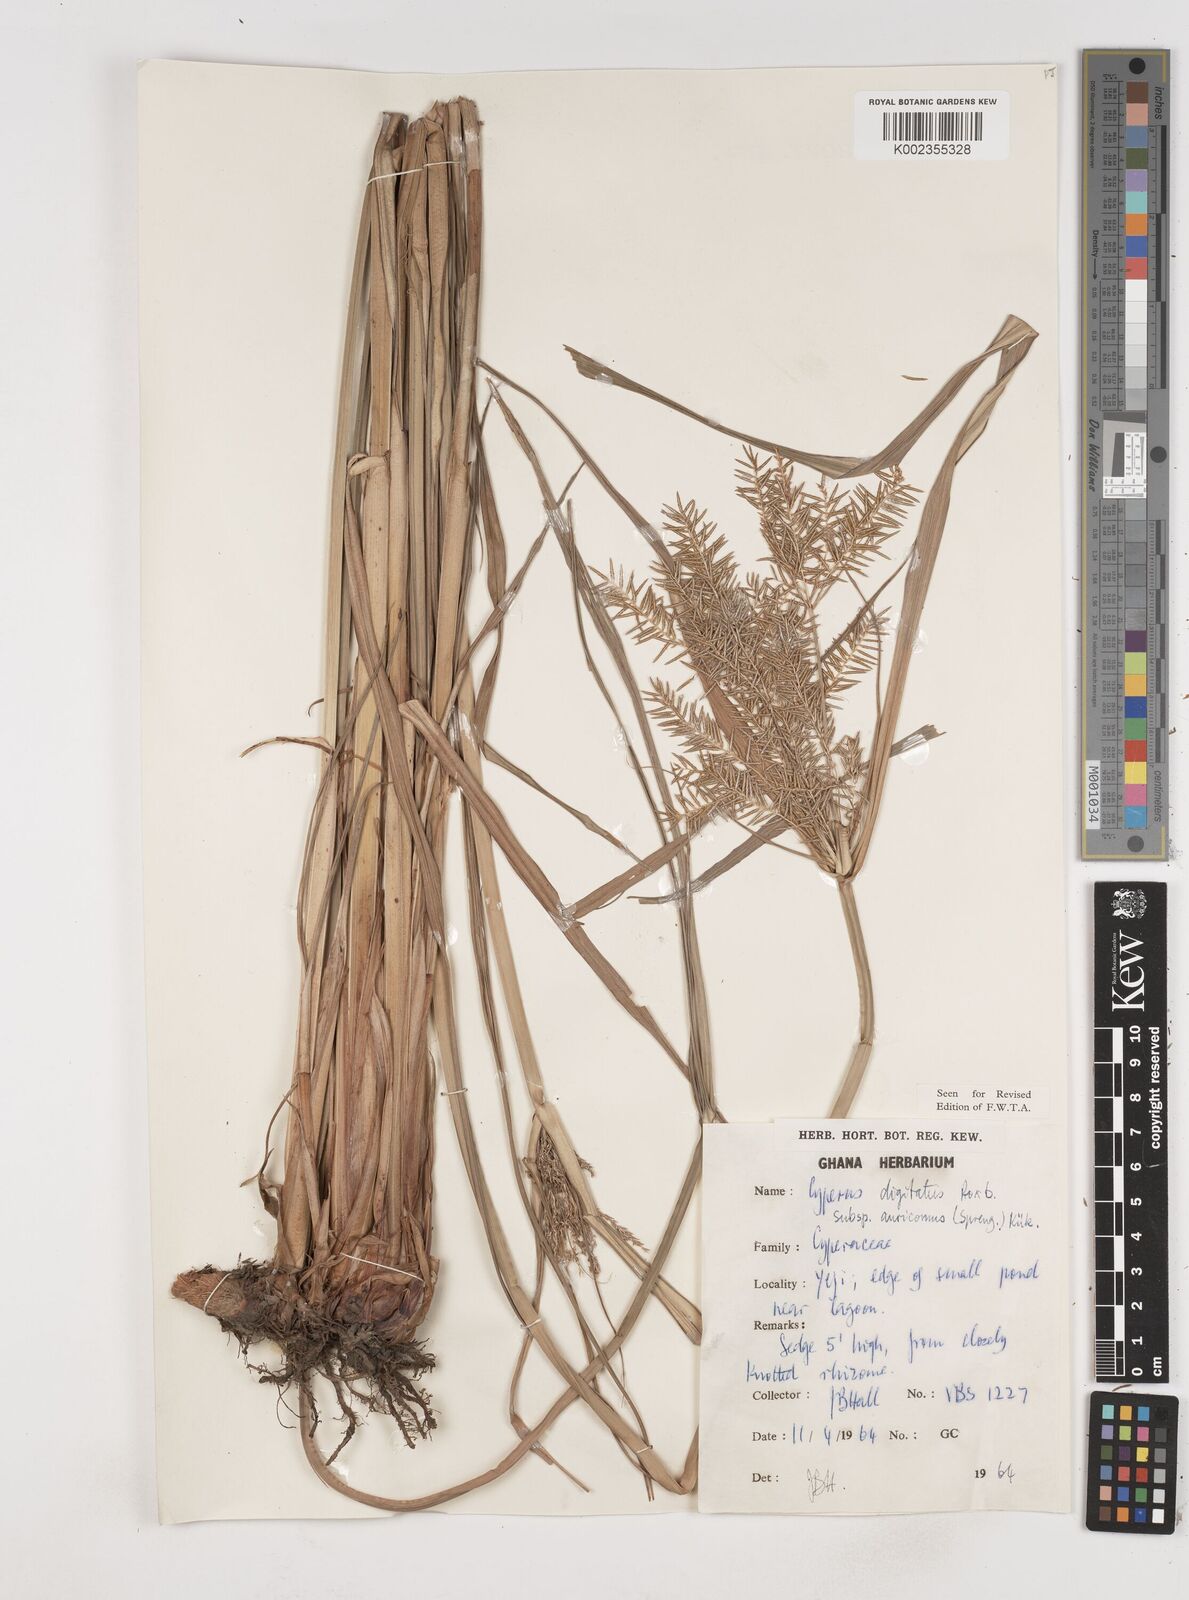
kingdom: Plantae
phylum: Tracheophyta
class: Liliopsida
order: Poales
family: Cyperaceae
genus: Cyperus
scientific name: Cyperus digitatus
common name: Finger flatsedge
